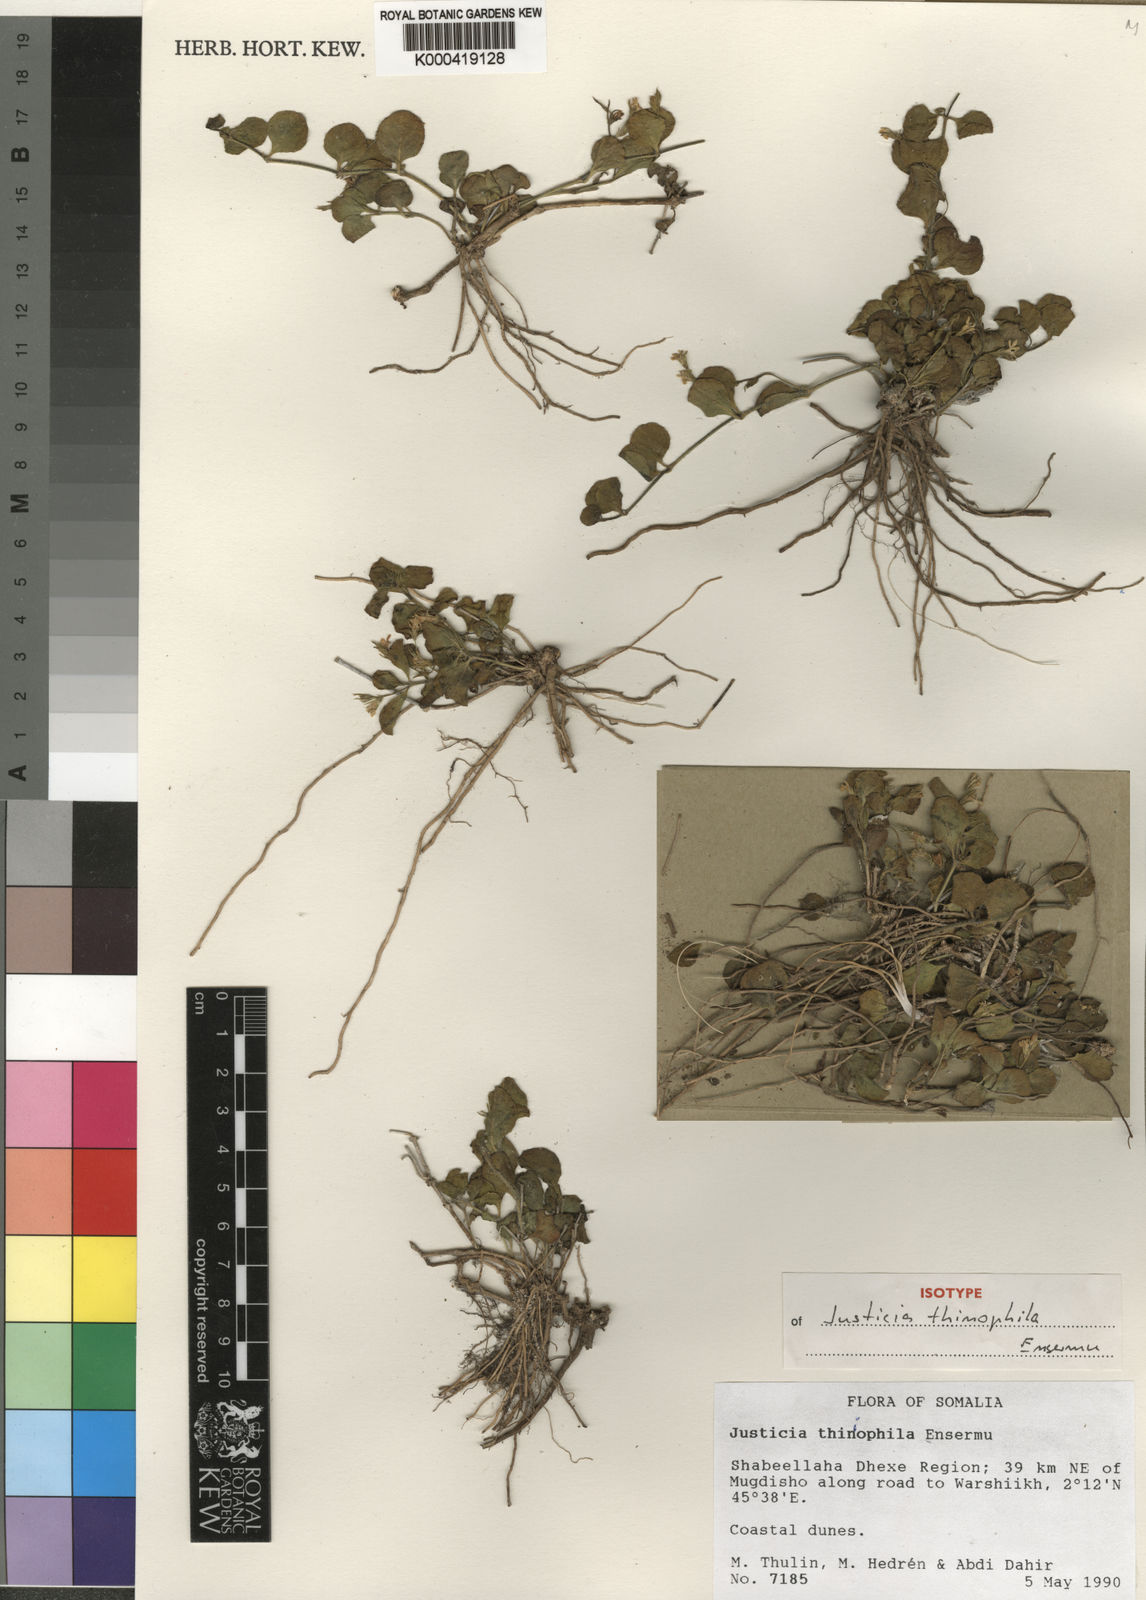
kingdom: Plantae
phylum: Tracheophyta
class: Magnoliopsida
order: Lamiales
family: Acanthaceae
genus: Justicia
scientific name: Justicia thiniophila
